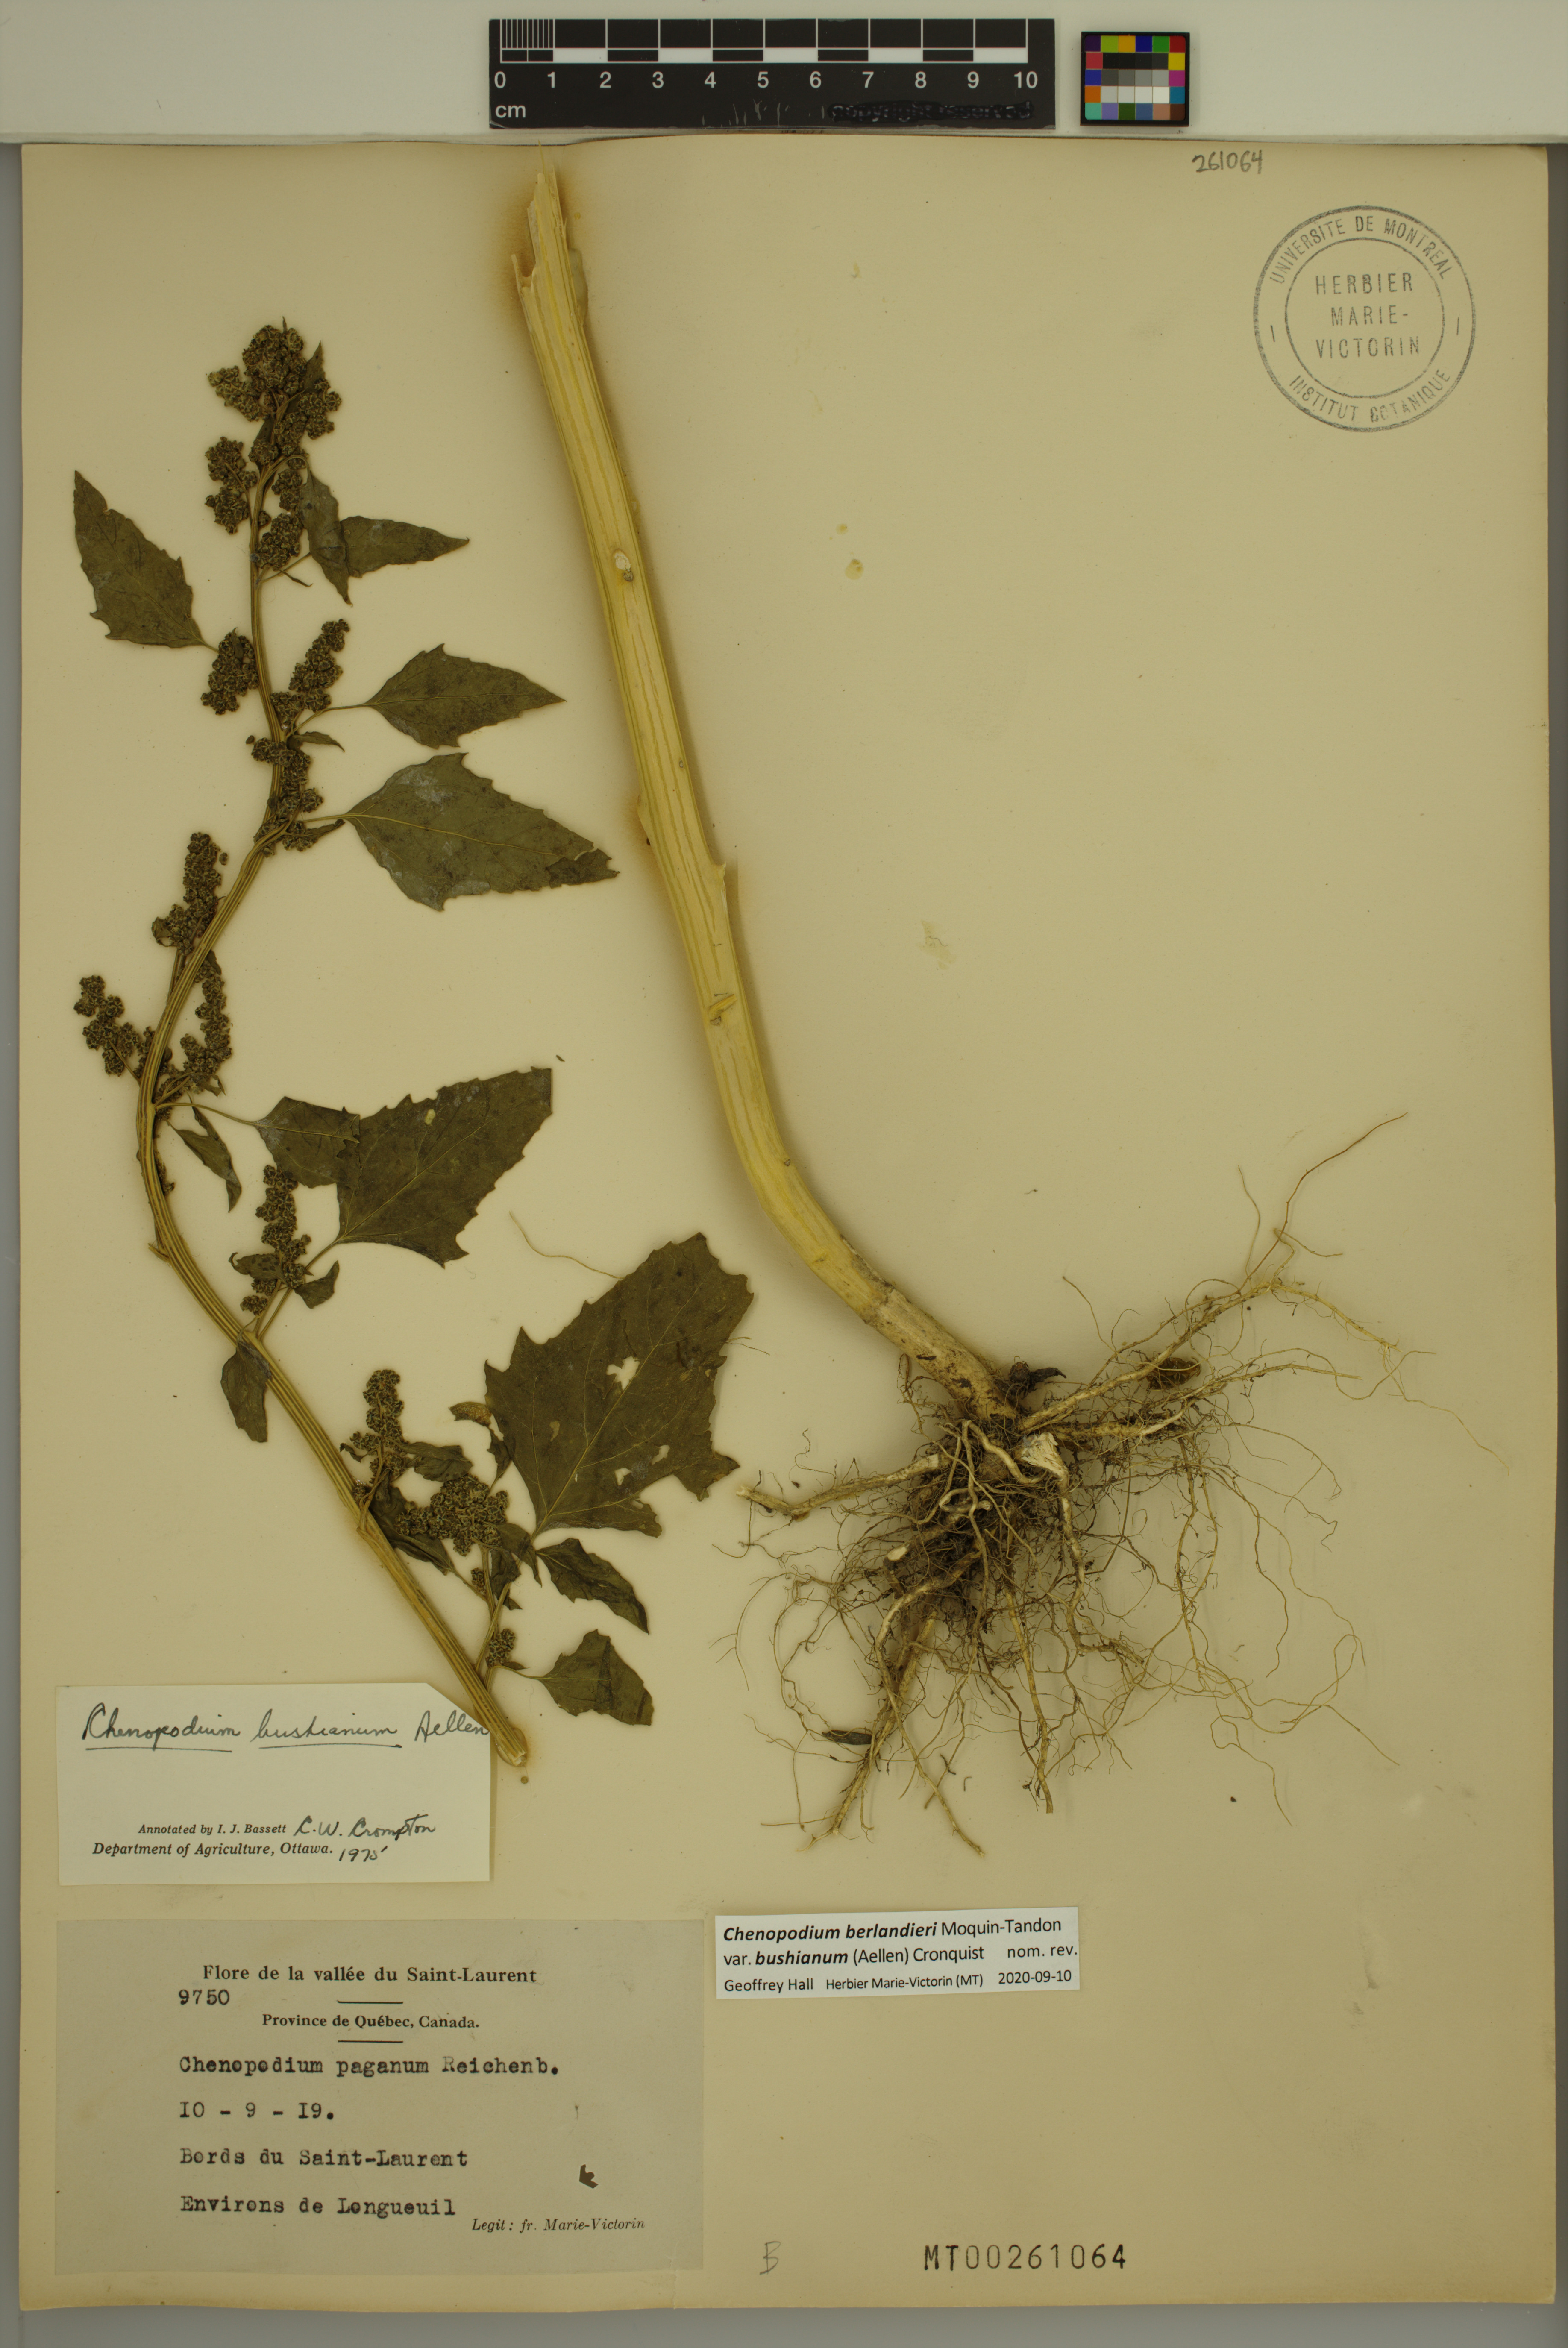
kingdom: Plantae
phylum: Tracheophyta
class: Magnoliopsida
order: Caryophyllales
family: Amaranthaceae
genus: Chenopodium
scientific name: Chenopodium berlandieri
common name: Pit-seed goosefoot
